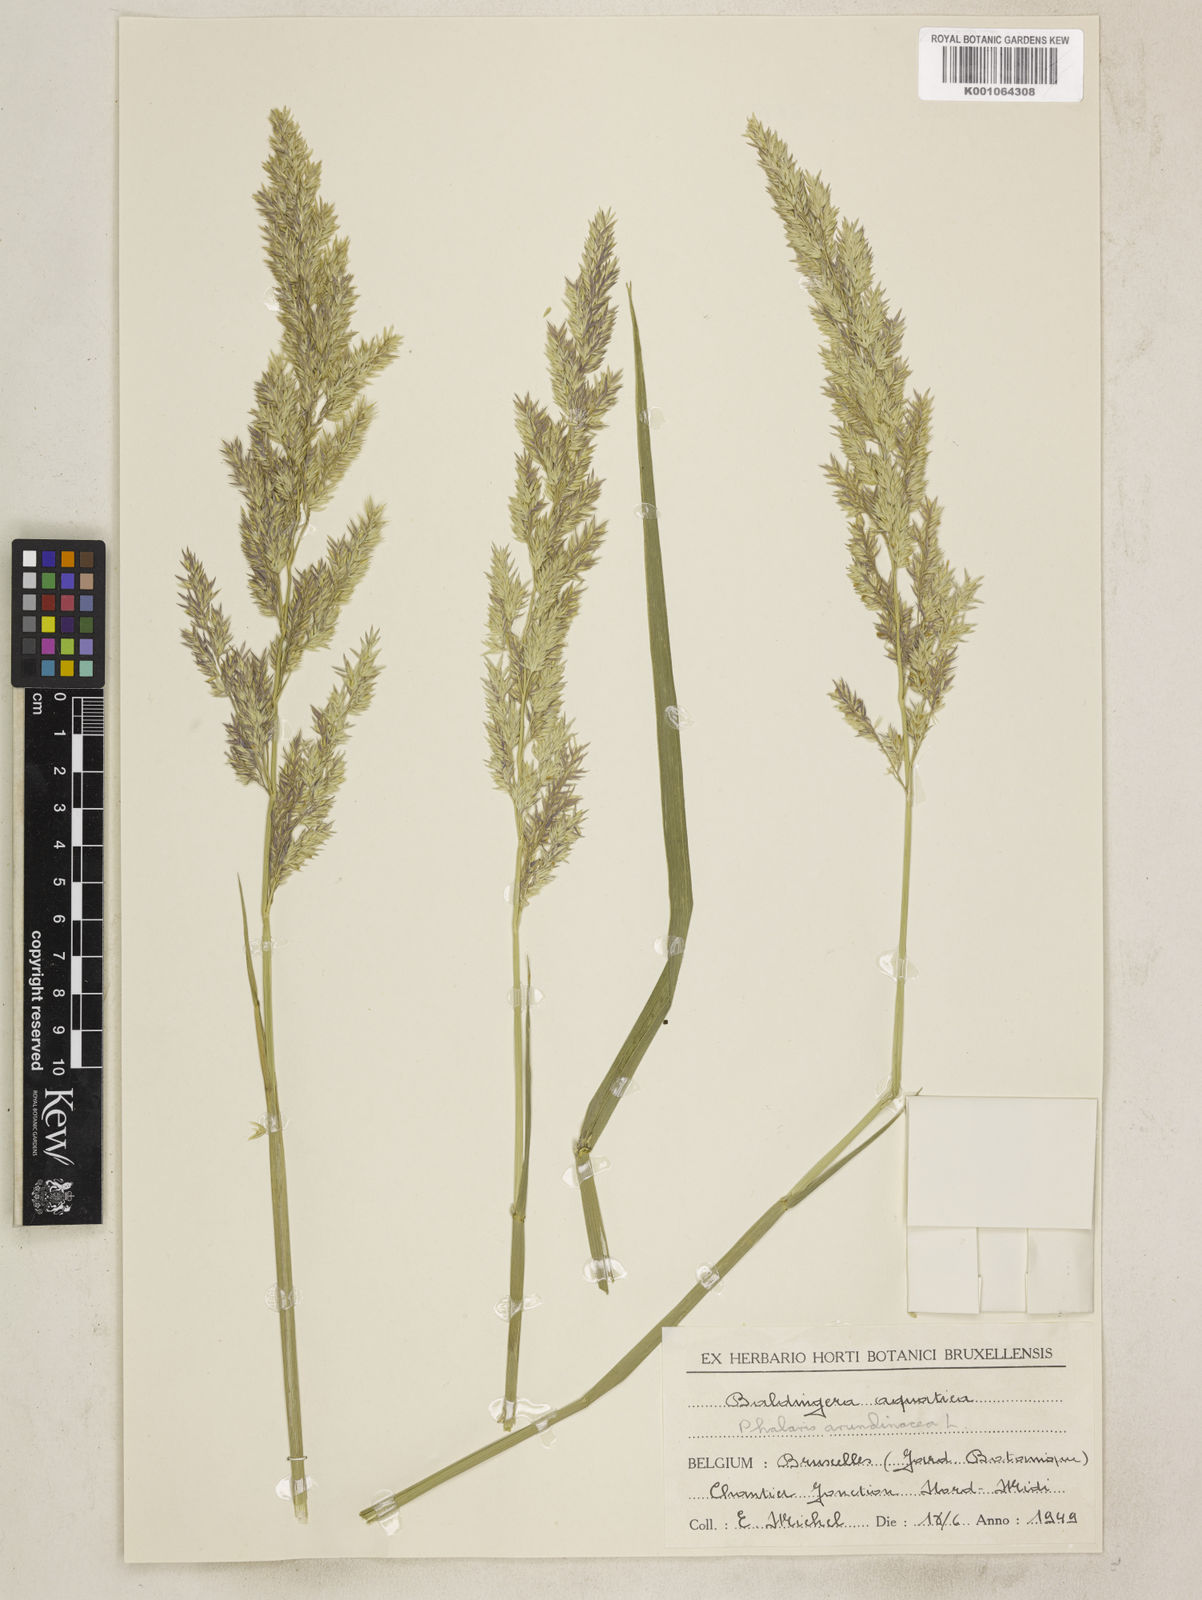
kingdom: Plantae
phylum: Tracheophyta
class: Liliopsida
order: Poales
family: Poaceae
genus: Phalaris
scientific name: Phalaris arundinacea
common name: Reed canary-grass
